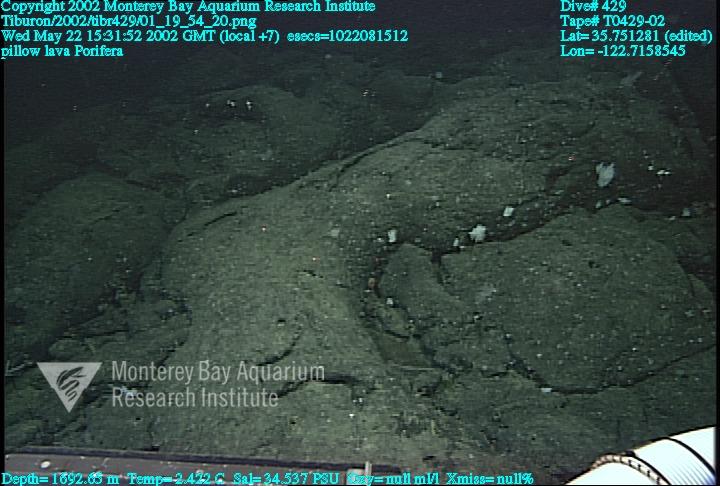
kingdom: Animalia
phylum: Porifera
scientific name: Porifera
